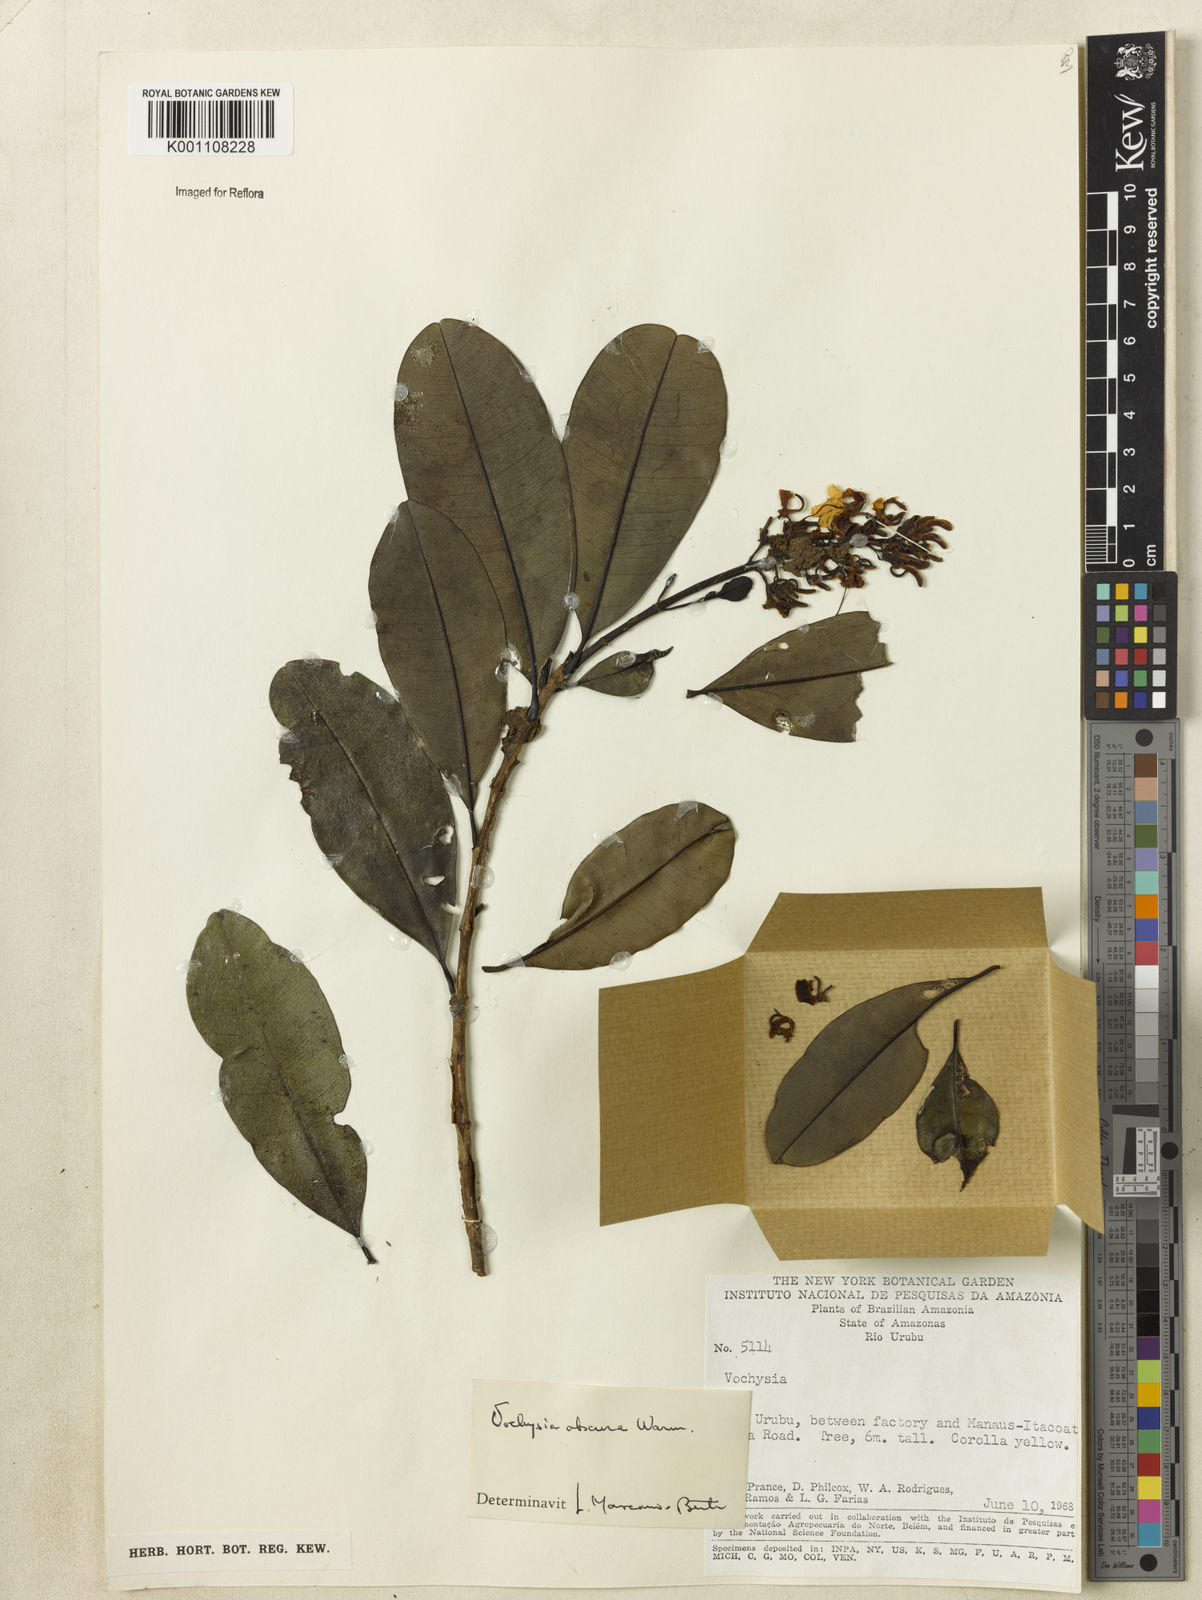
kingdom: Plantae
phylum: Tracheophyta
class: Magnoliopsida
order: Myrtales
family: Vochysiaceae
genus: Vochysia
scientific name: Vochysia obscura
